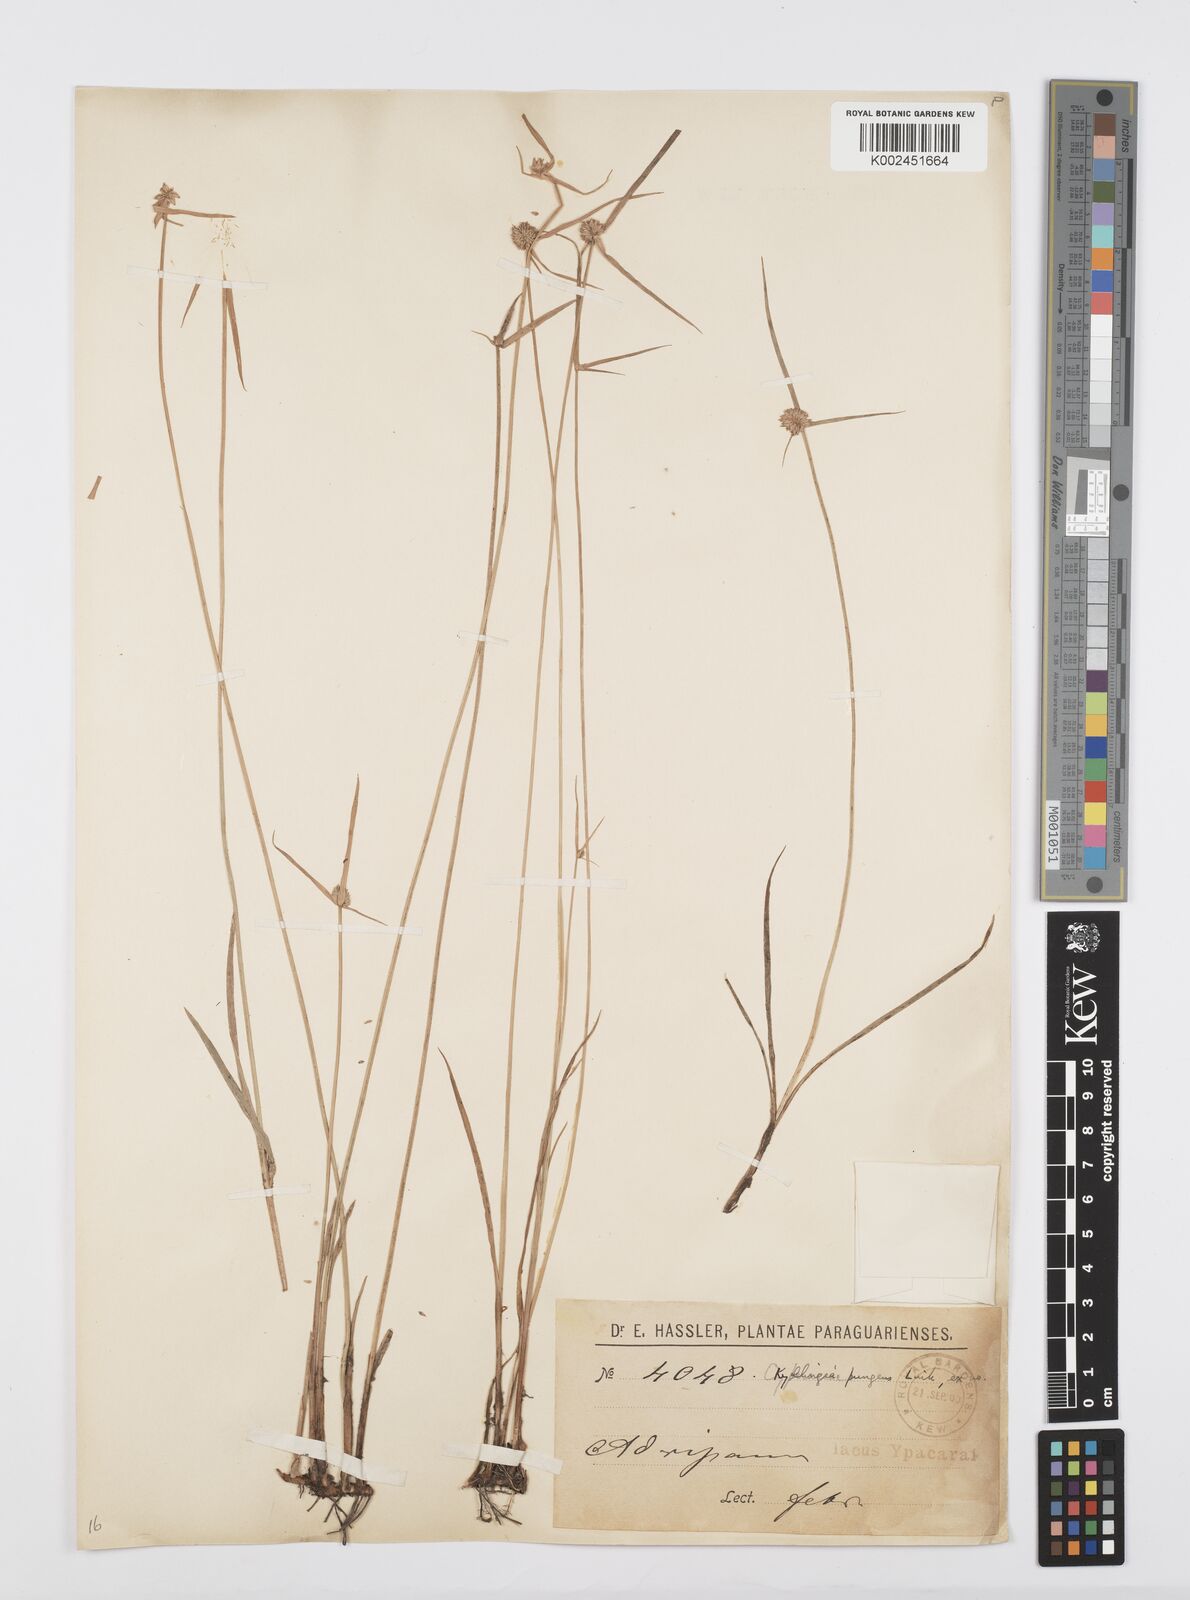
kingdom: Plantae
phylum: Tracheophyta
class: Liliopsida
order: Poales
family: Cyperaceae
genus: Cyperus
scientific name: Cyperus obtusatus
